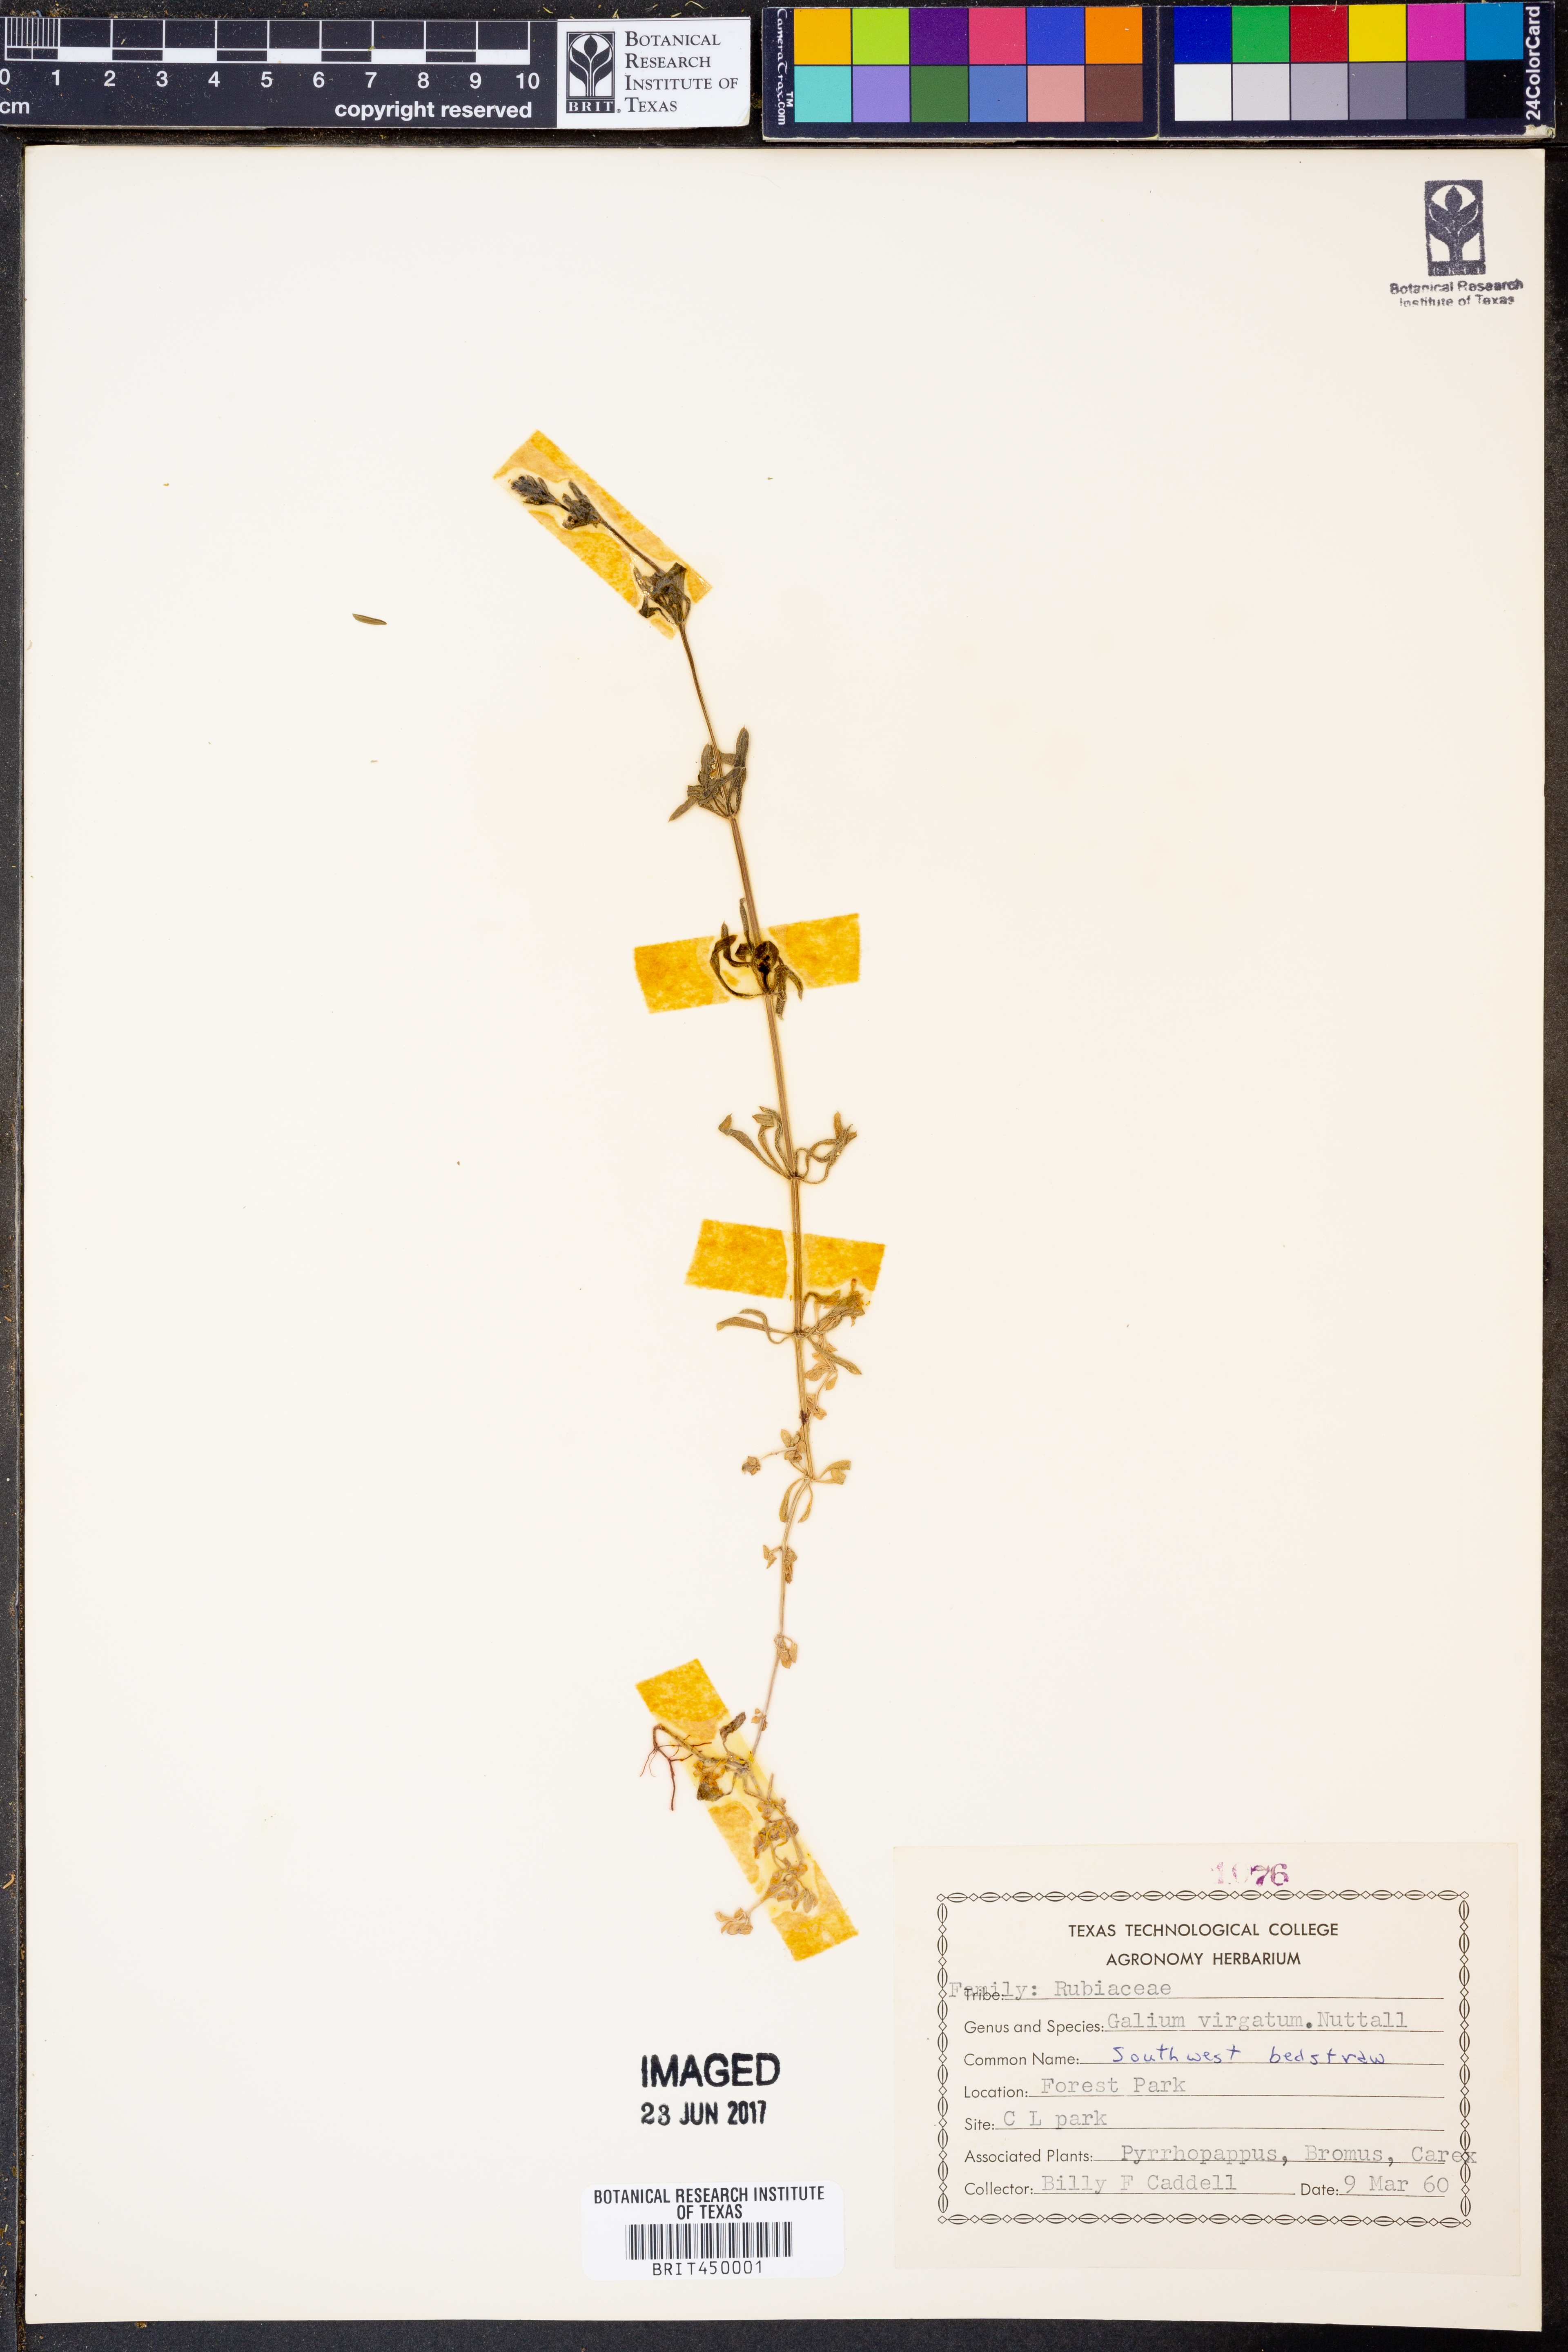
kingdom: Plantae
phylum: Tracheophyta
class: Magnoliopsida
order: Gentianales
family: Rubiaceae
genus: Galium
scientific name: Galium virgatum
